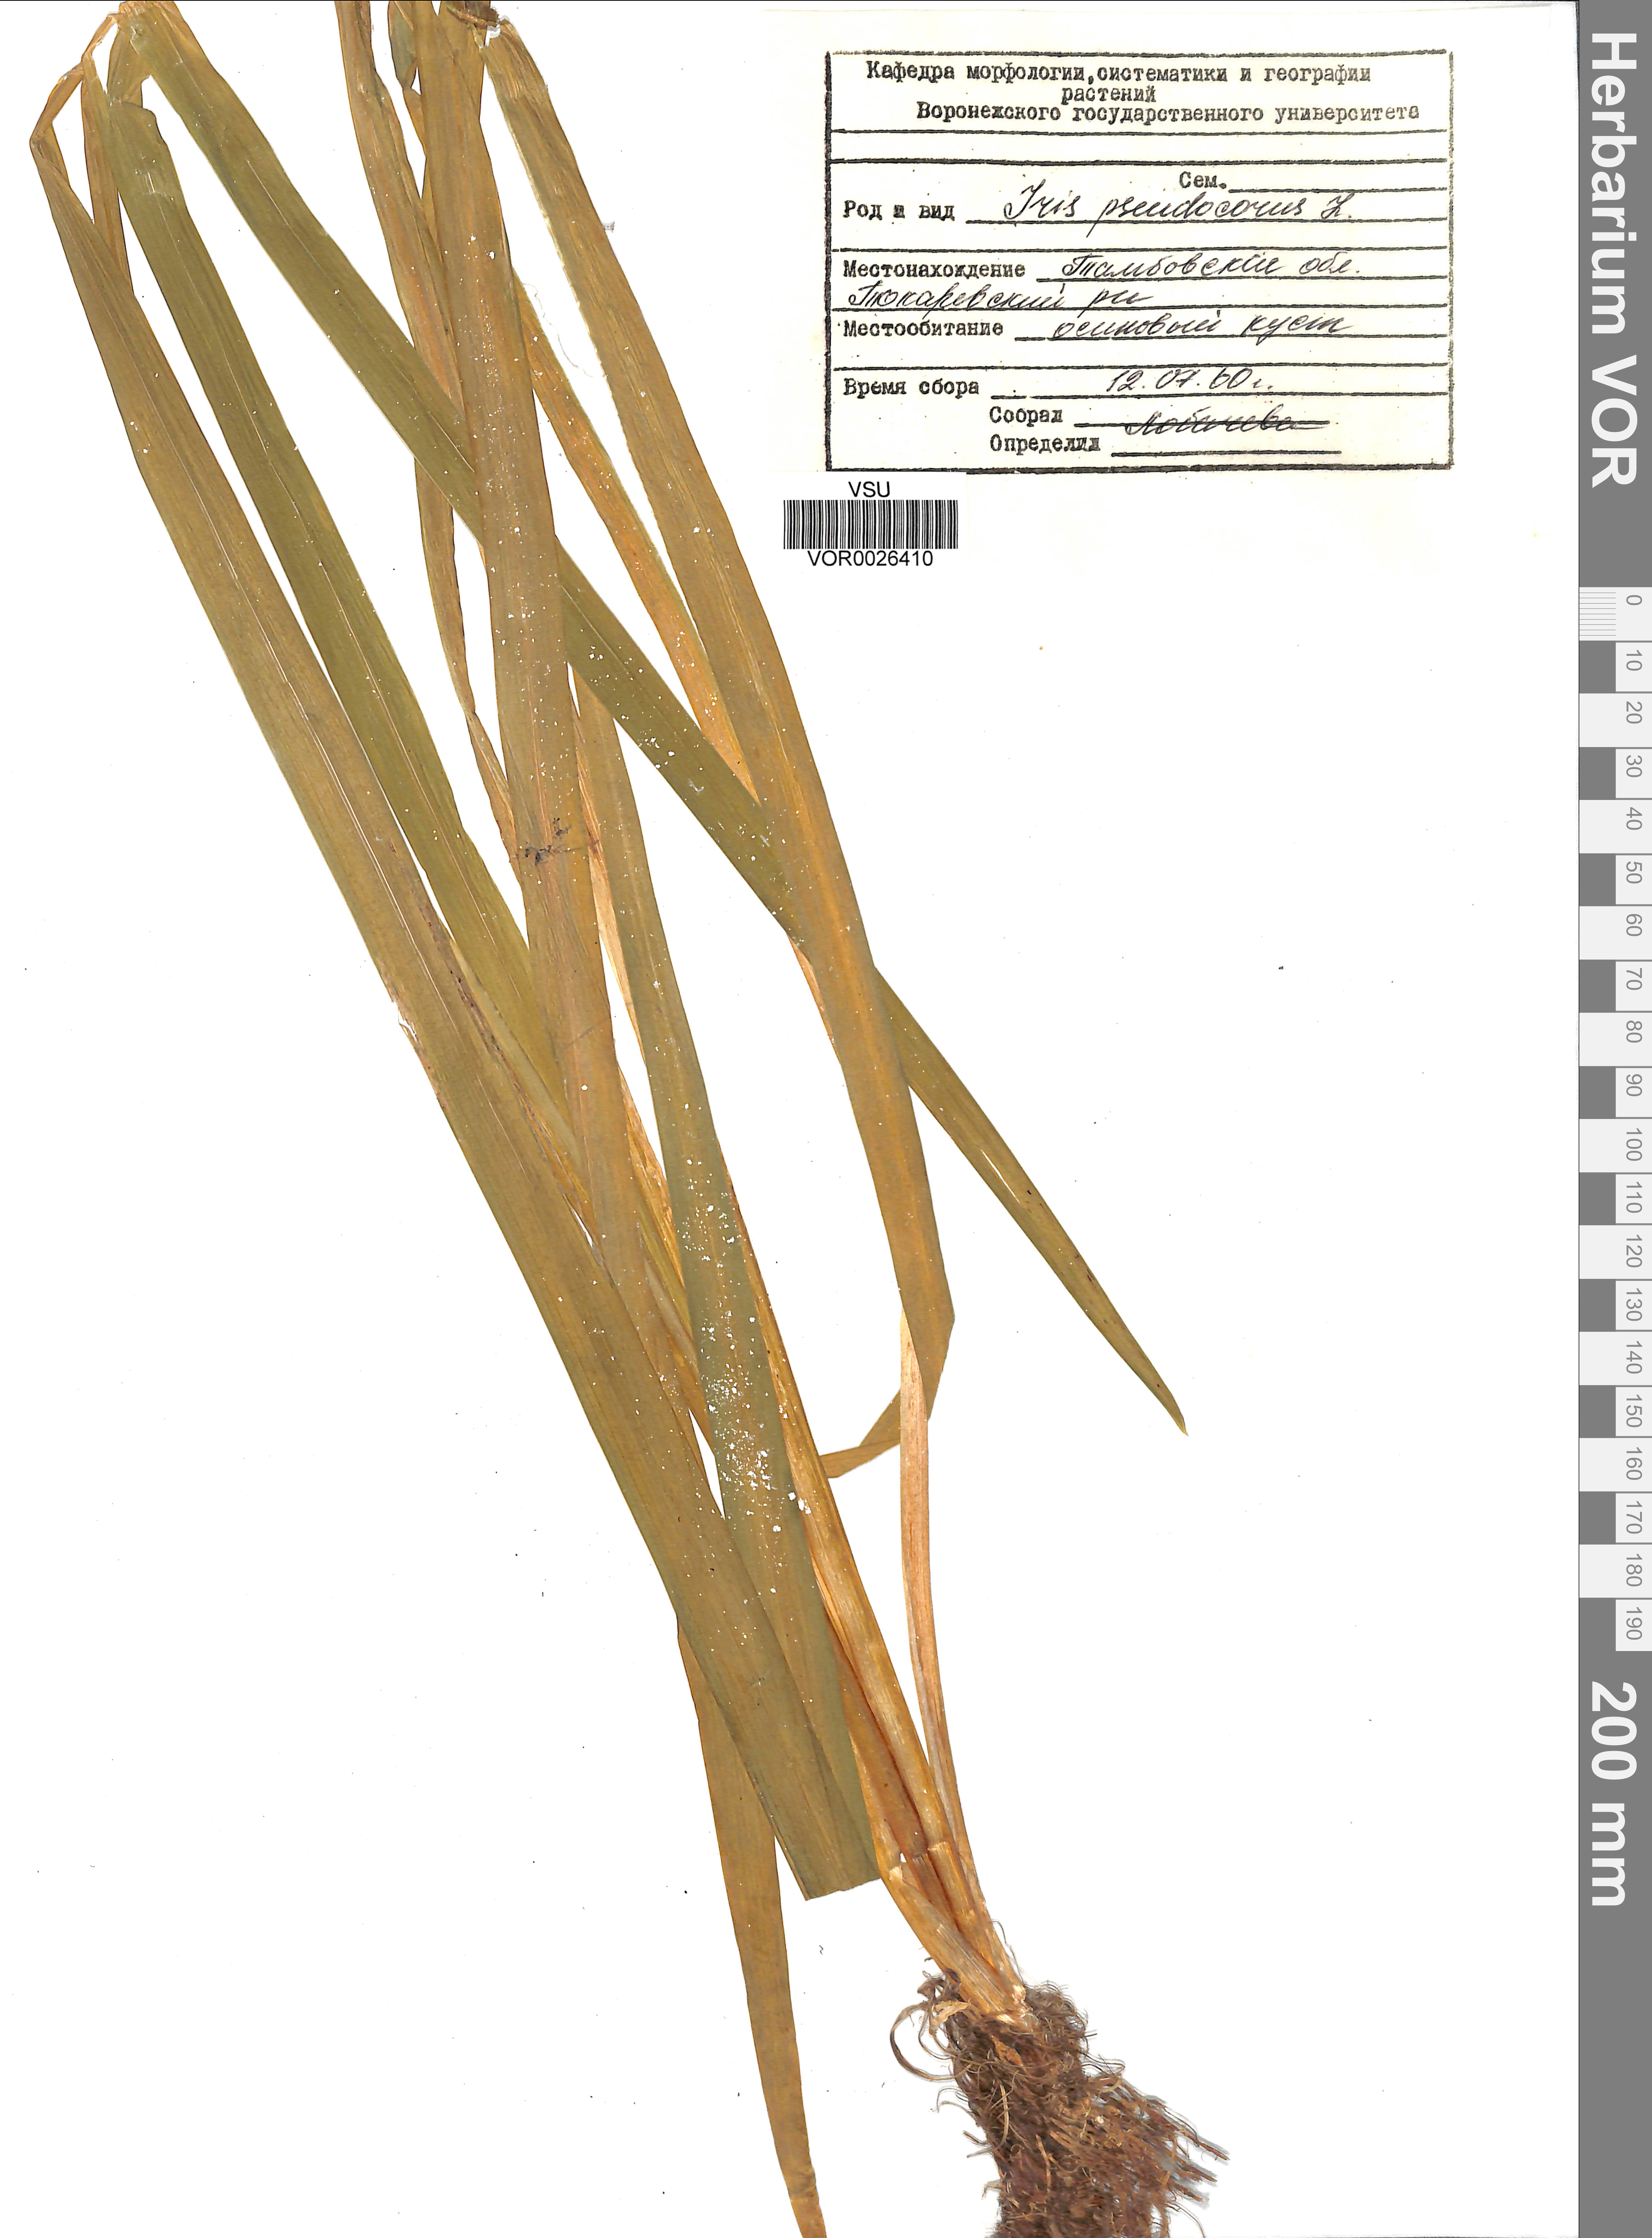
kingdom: Plantae
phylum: Tracheophyta
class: Liliopsida
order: Asparagales
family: Iridaceae
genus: Iris
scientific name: Iris pseudacorus
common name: Yellow flag
